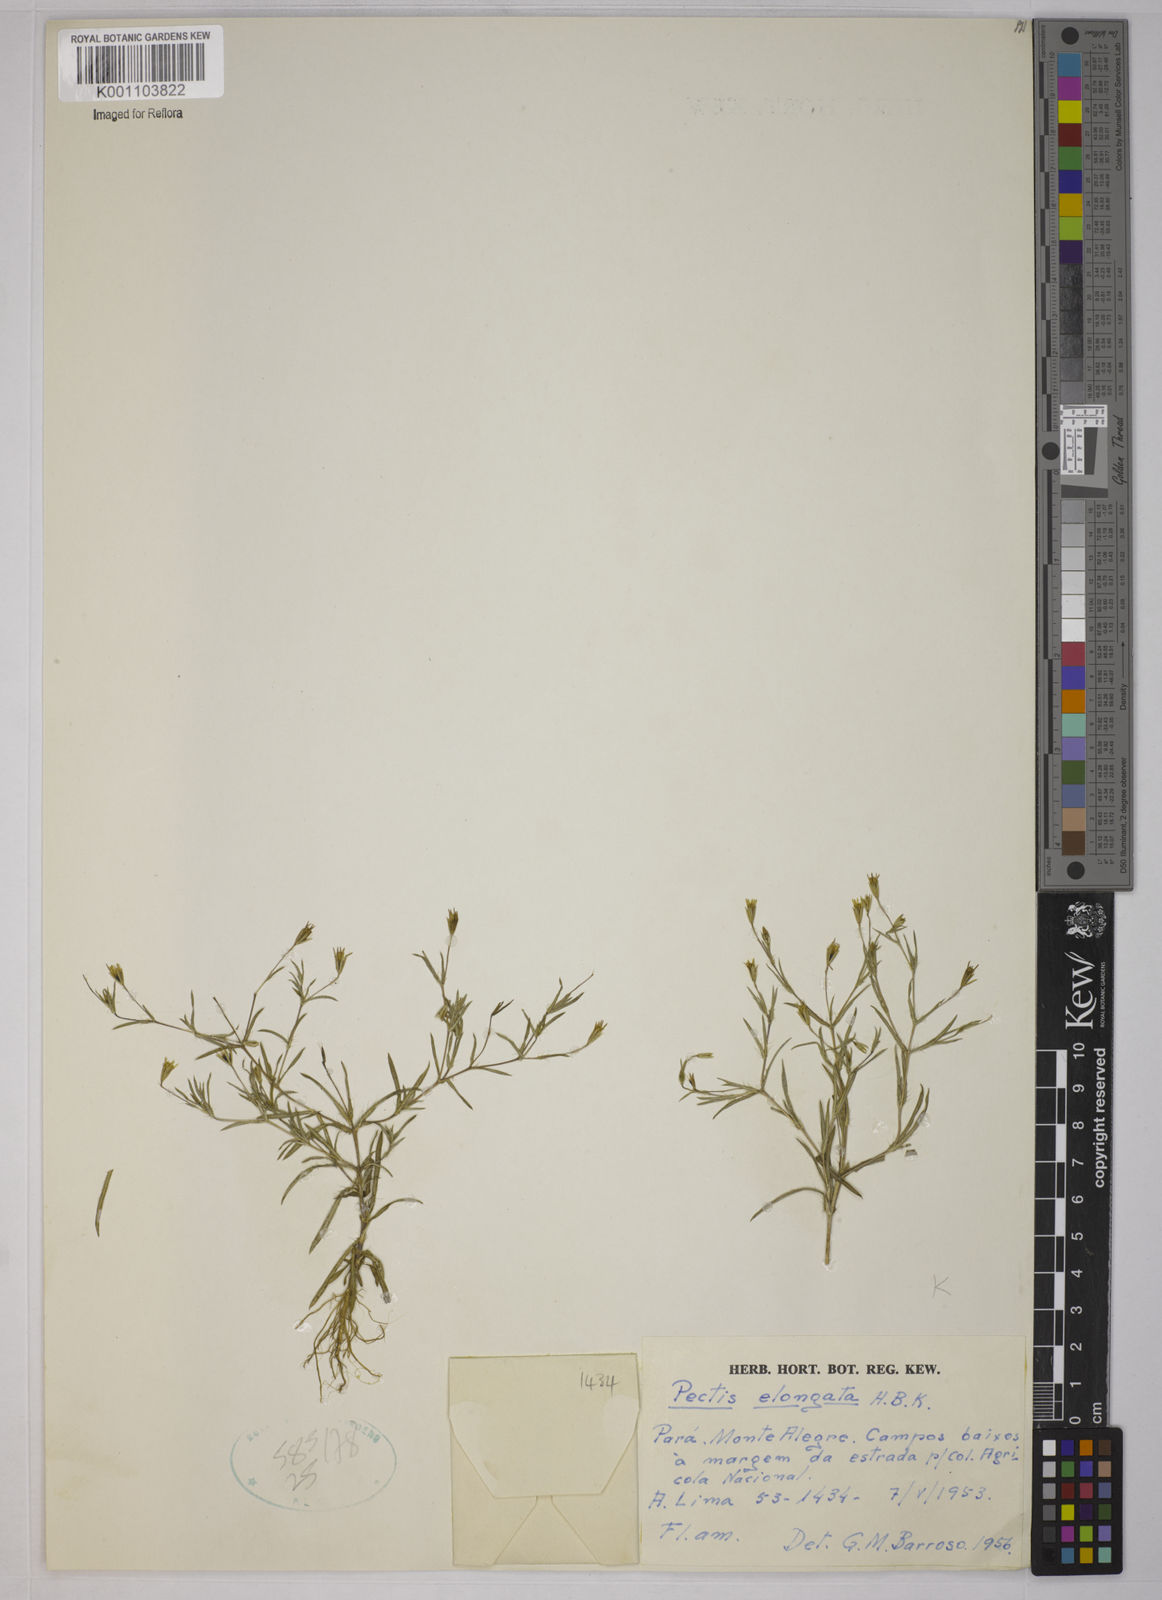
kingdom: Plantae
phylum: Tracheophyta
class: Magnoliopsida
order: Asterales
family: Asteraceae
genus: Pectis
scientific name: Pectis elongata
